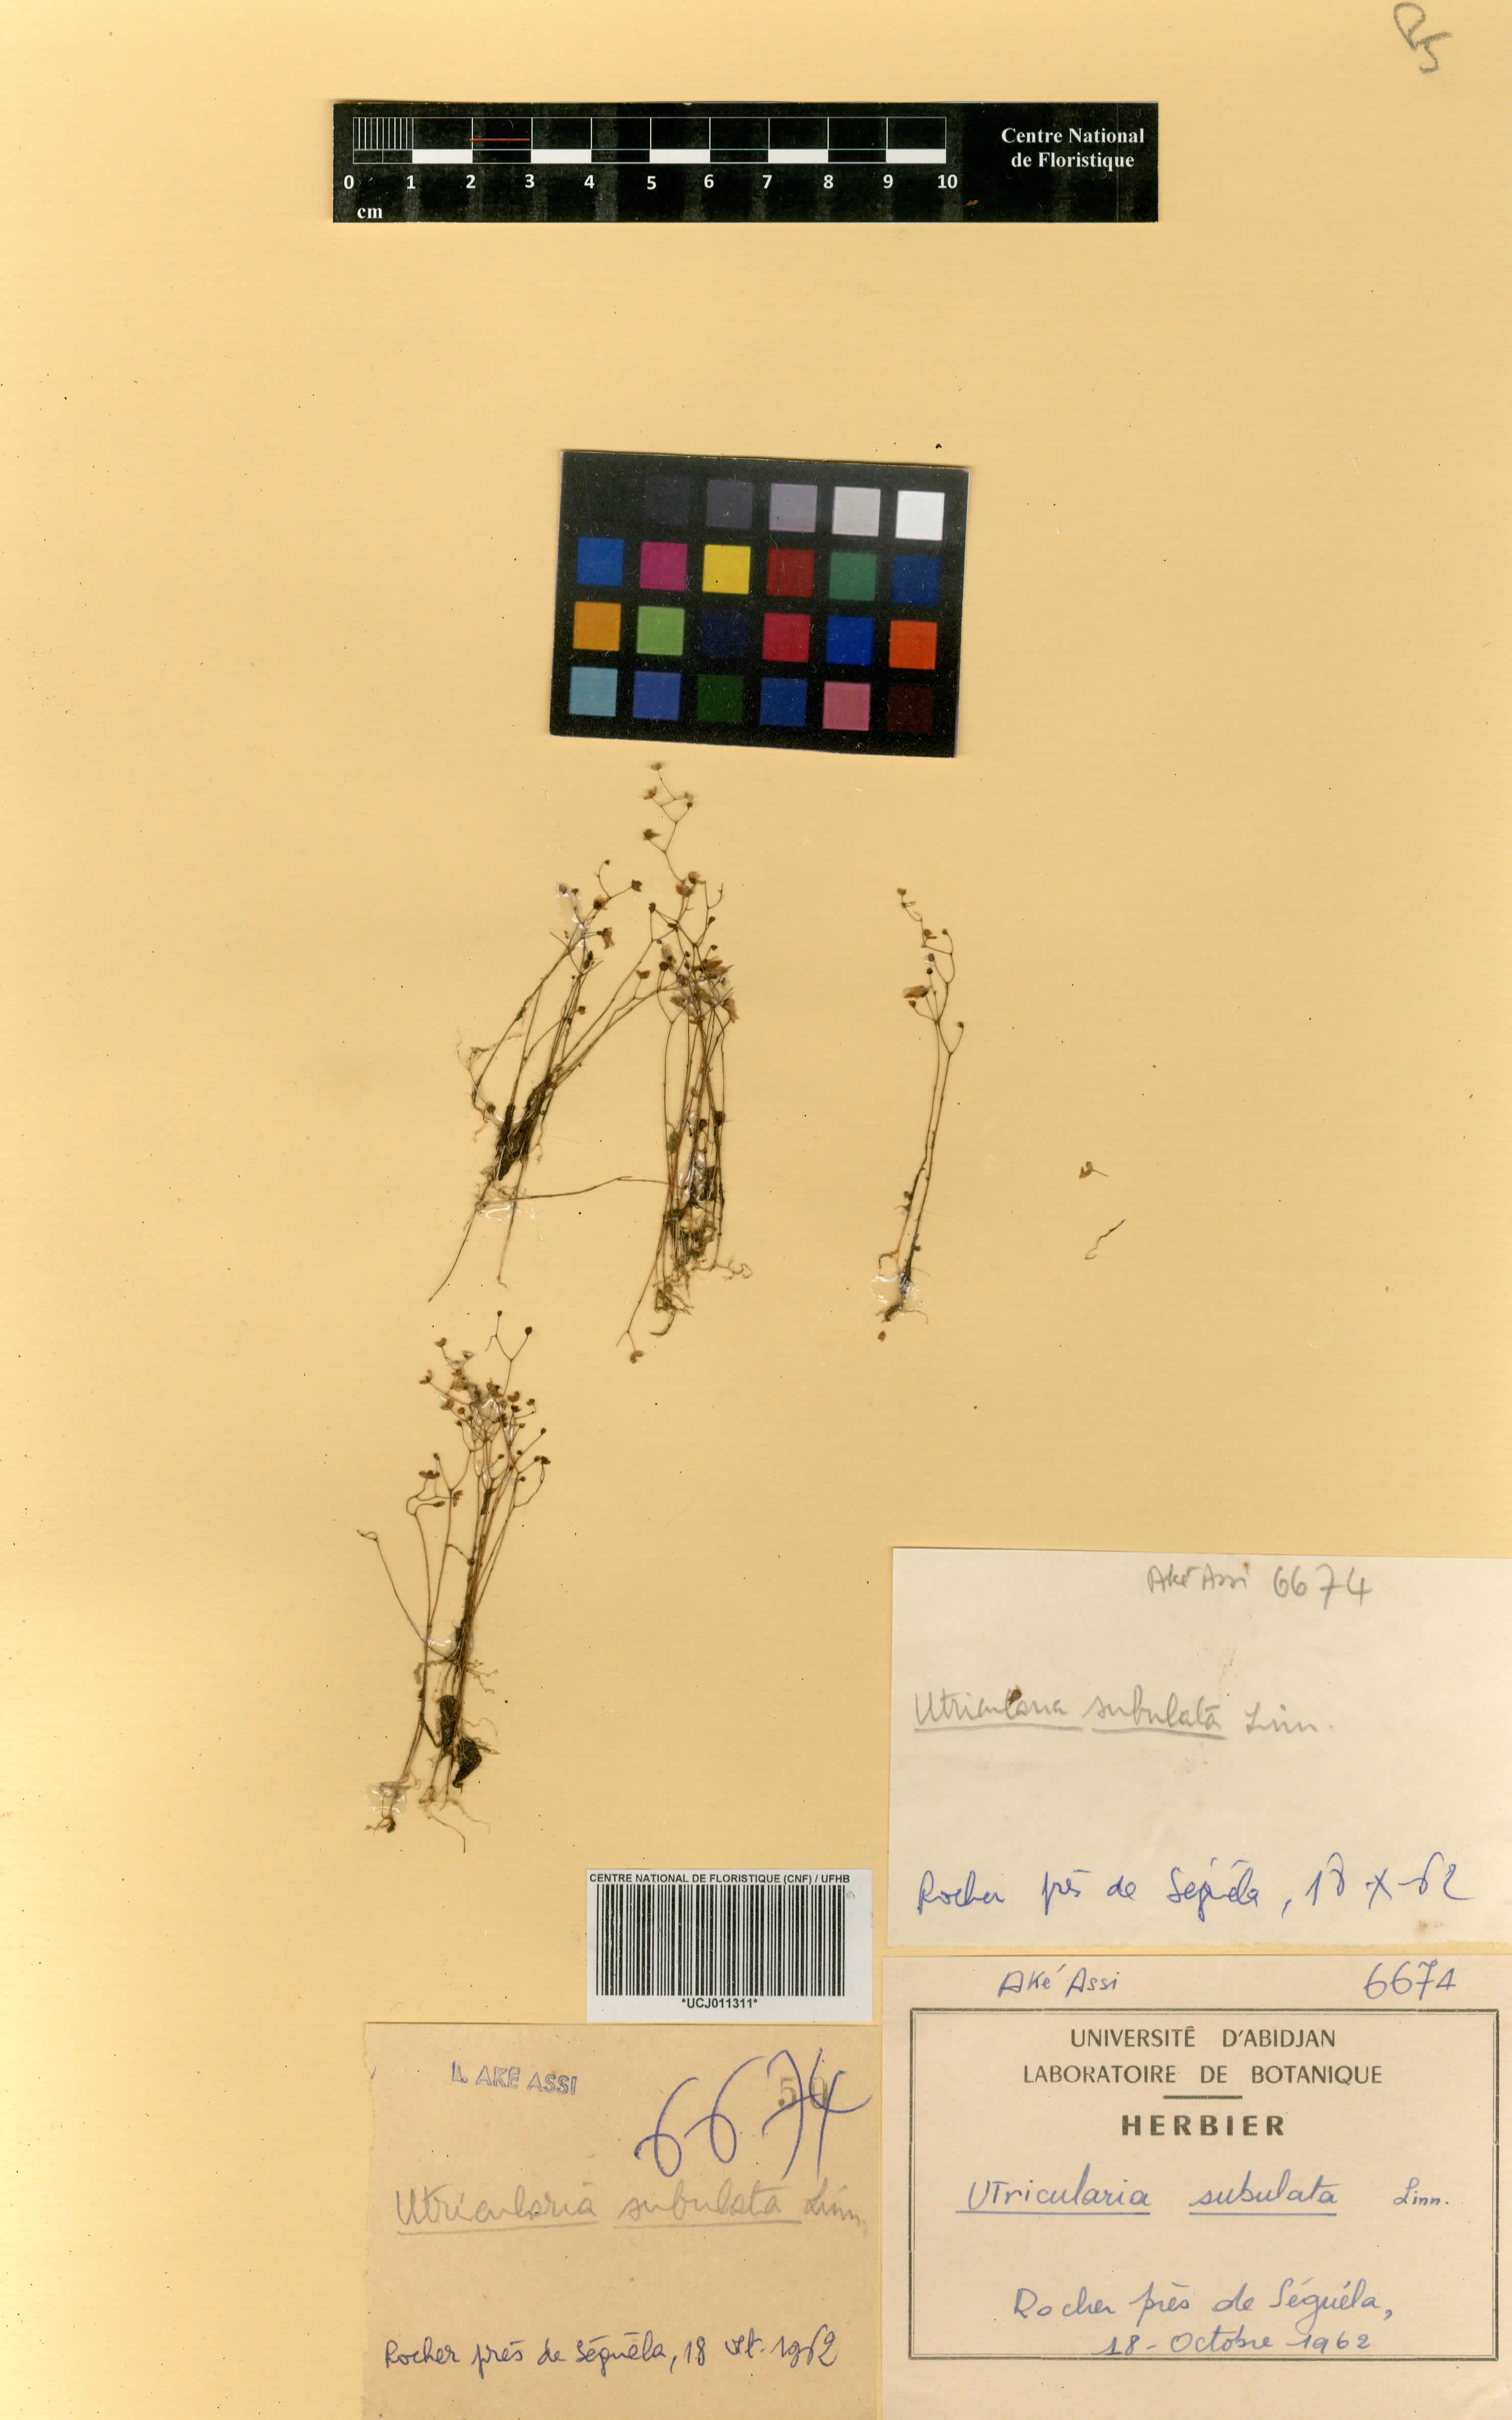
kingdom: Plantae
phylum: Tracheophyta
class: Magnoliopsida
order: Lamiales
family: Lentibulariaceae
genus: Utricularia
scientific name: Utricularia subulata
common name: Tiny bladderwort
